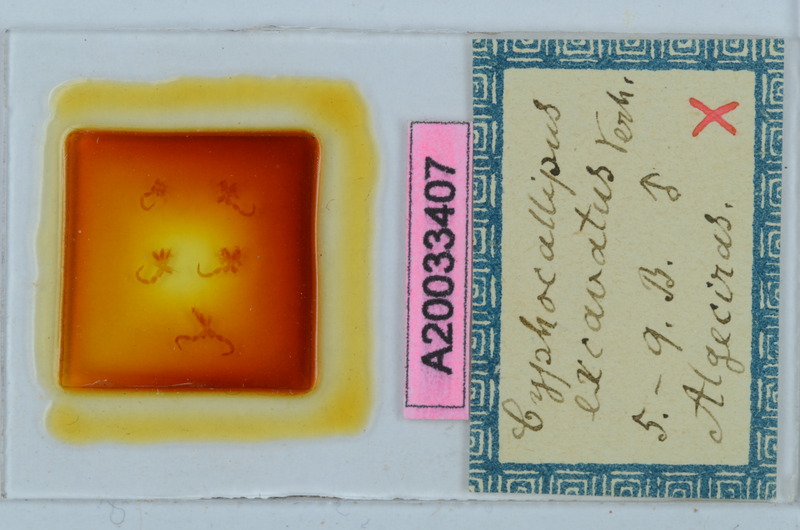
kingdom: Animalia
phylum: Arthropoda
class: Diplopoda
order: Callipodida
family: Dorypetalidae
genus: Cyphocallipus
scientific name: Cyphocallipus excavatus
